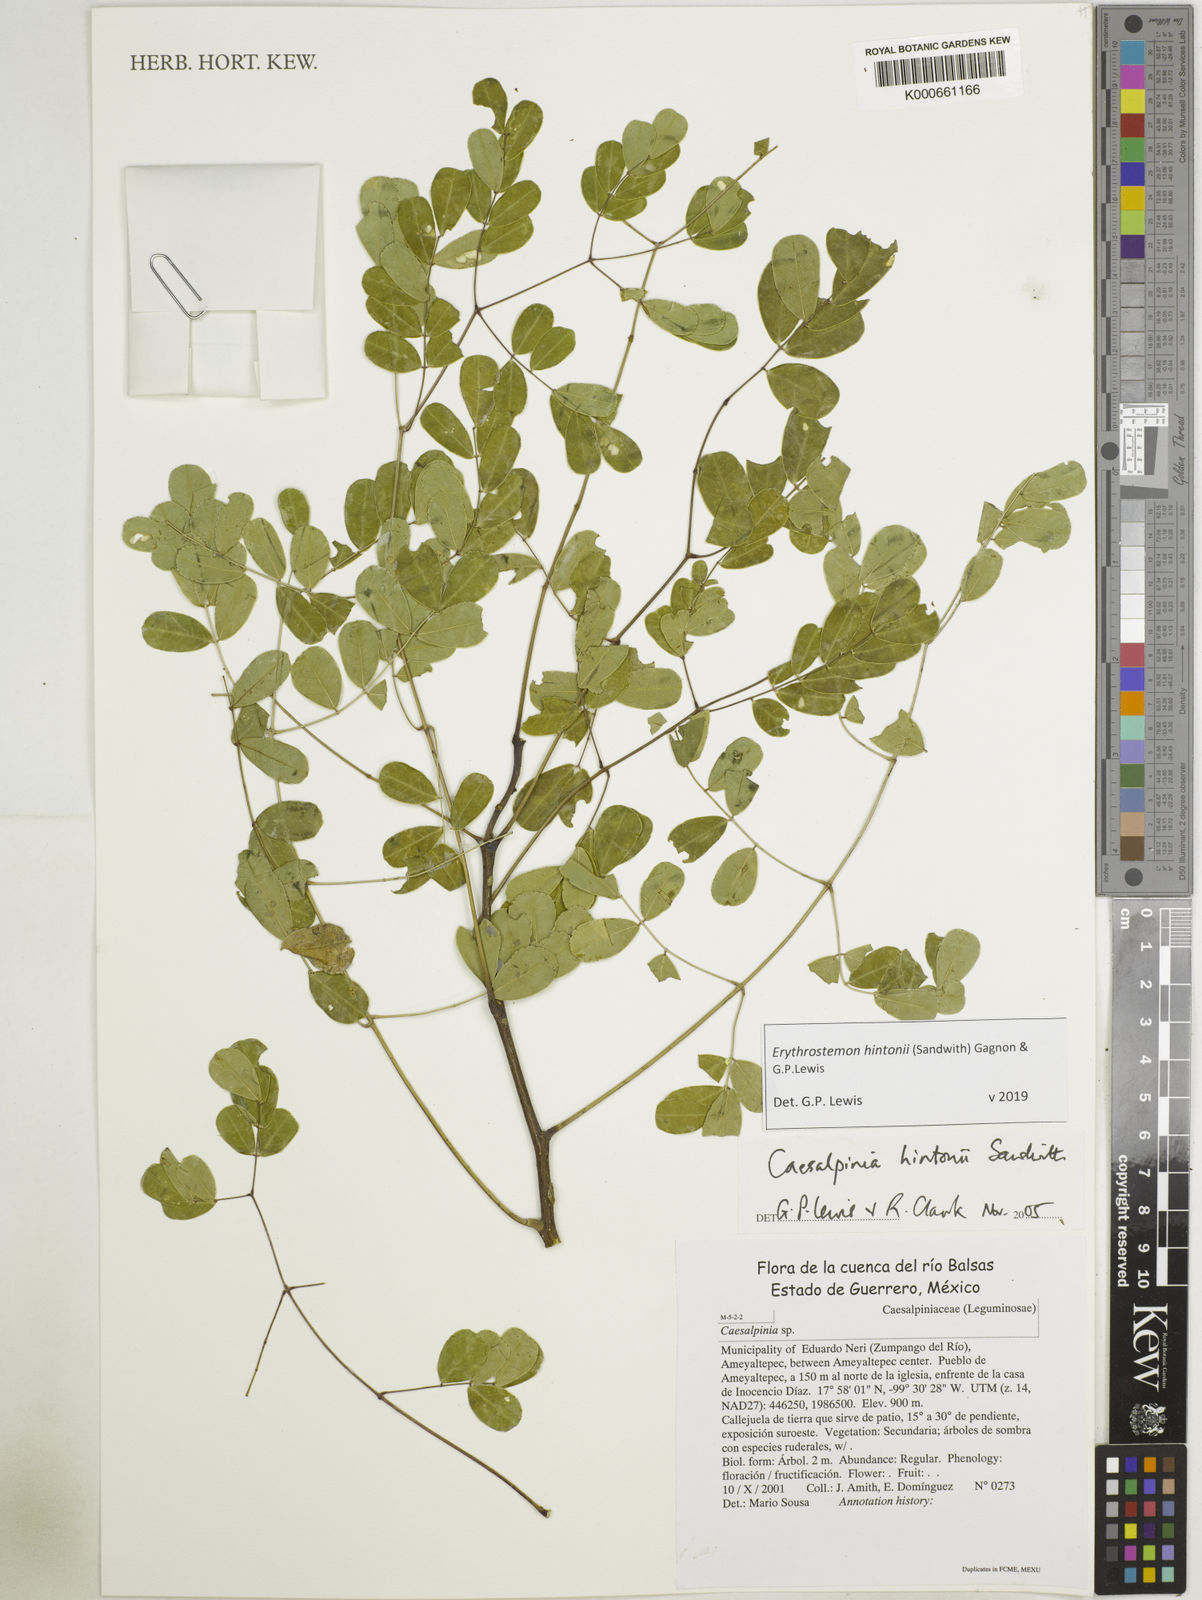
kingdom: Plantae
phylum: Tracheophyta
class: Magnoliopsida
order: Fabales
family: Fabaceae
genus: Erythrostemon
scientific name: Erythrostemon hintonii
